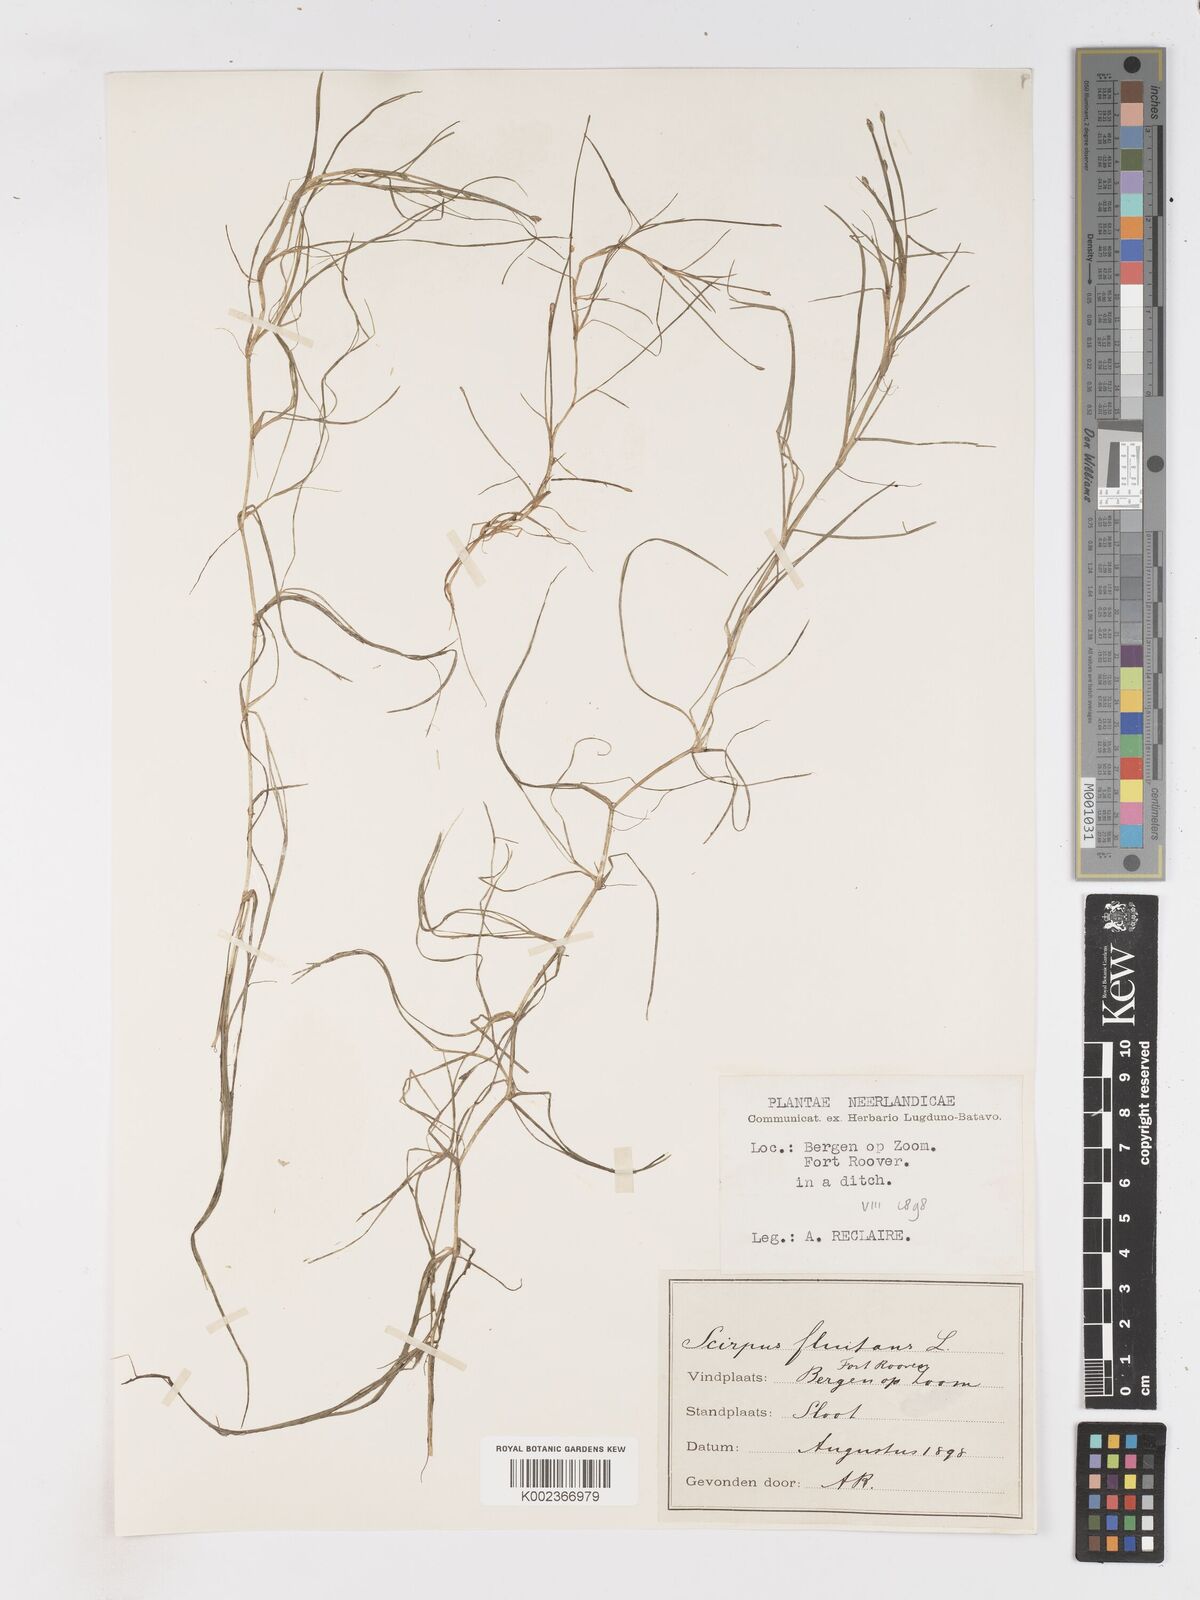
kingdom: Plantae
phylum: Tracheophyta
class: Liliopsida
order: Poales
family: Cyperaceae
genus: Isolepis
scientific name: Isolepis fluitans
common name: Floating club-rush
